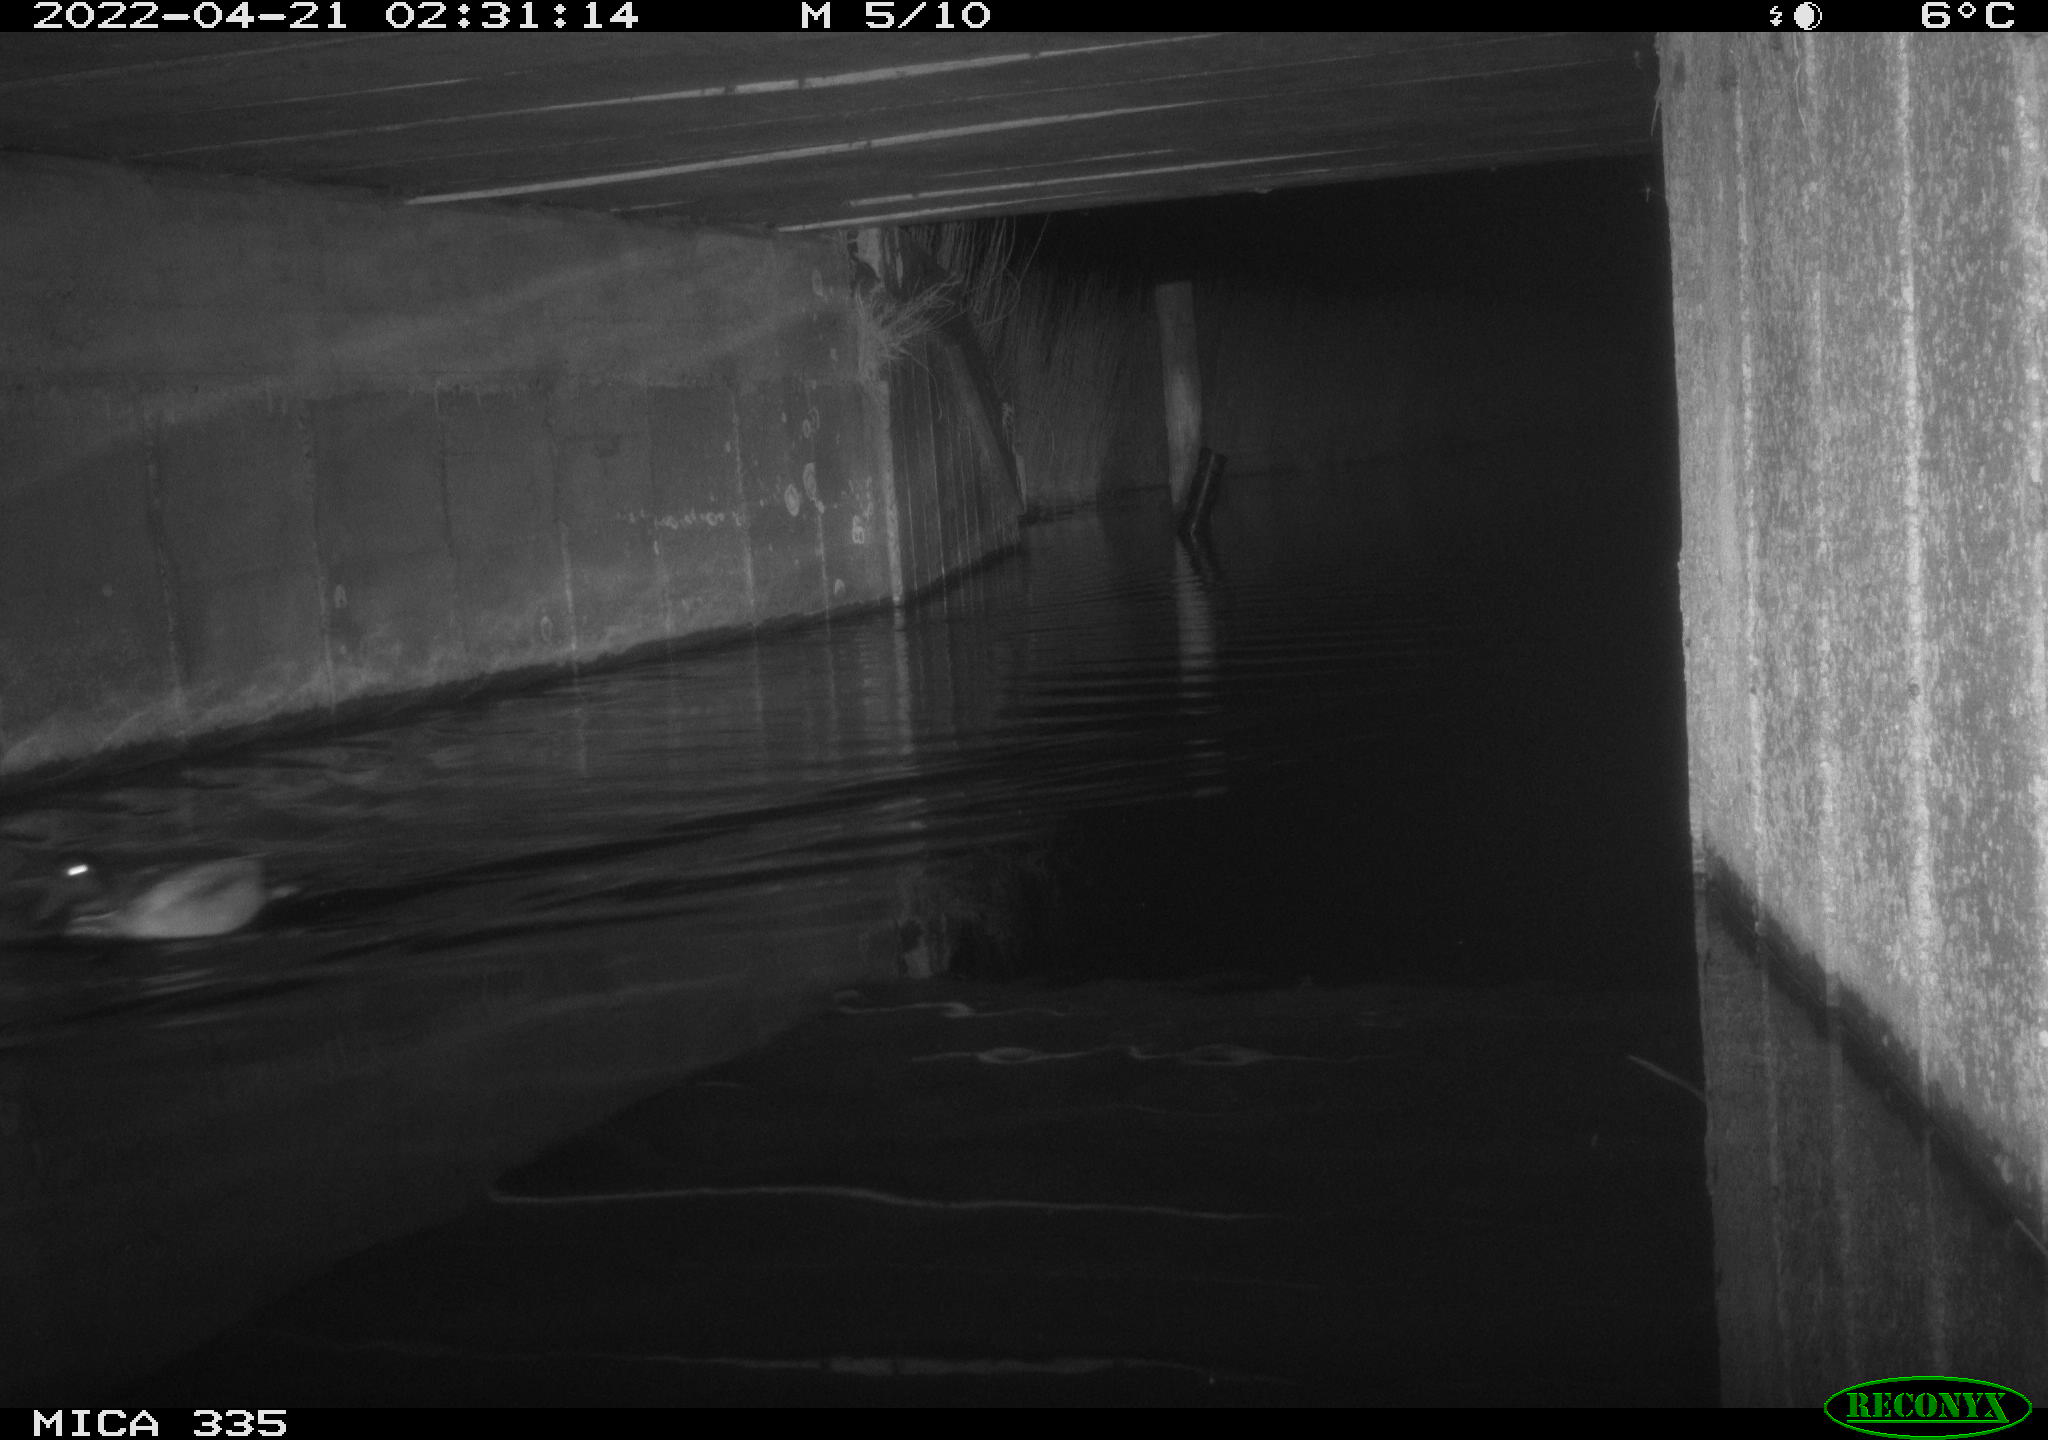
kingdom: Animalia
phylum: Chordata
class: Aves
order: Anseriformes
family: Anatidae
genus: Anas
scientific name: Anas platyrhynchos
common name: Mallard
